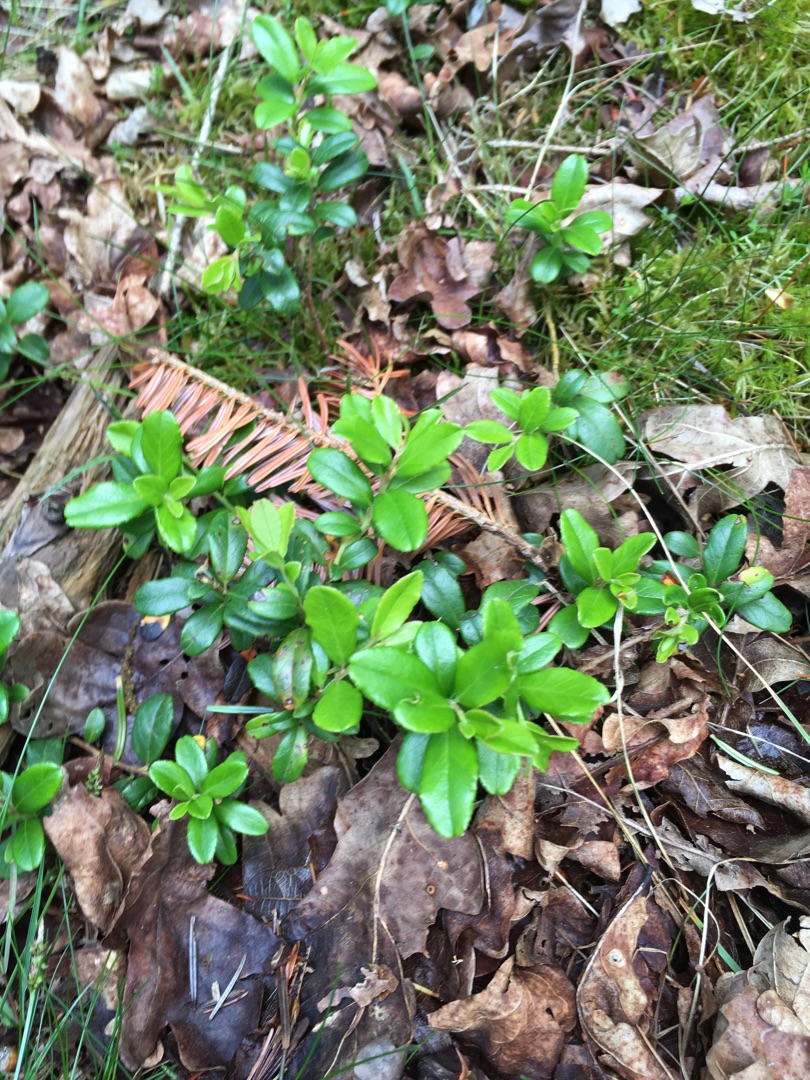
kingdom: Plantae
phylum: Tracheophyta
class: Magnoliopsida
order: Ericales
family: Ericaceae
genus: Vaccinium
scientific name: Vaccinium vitis-idaea
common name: Tyttebær
